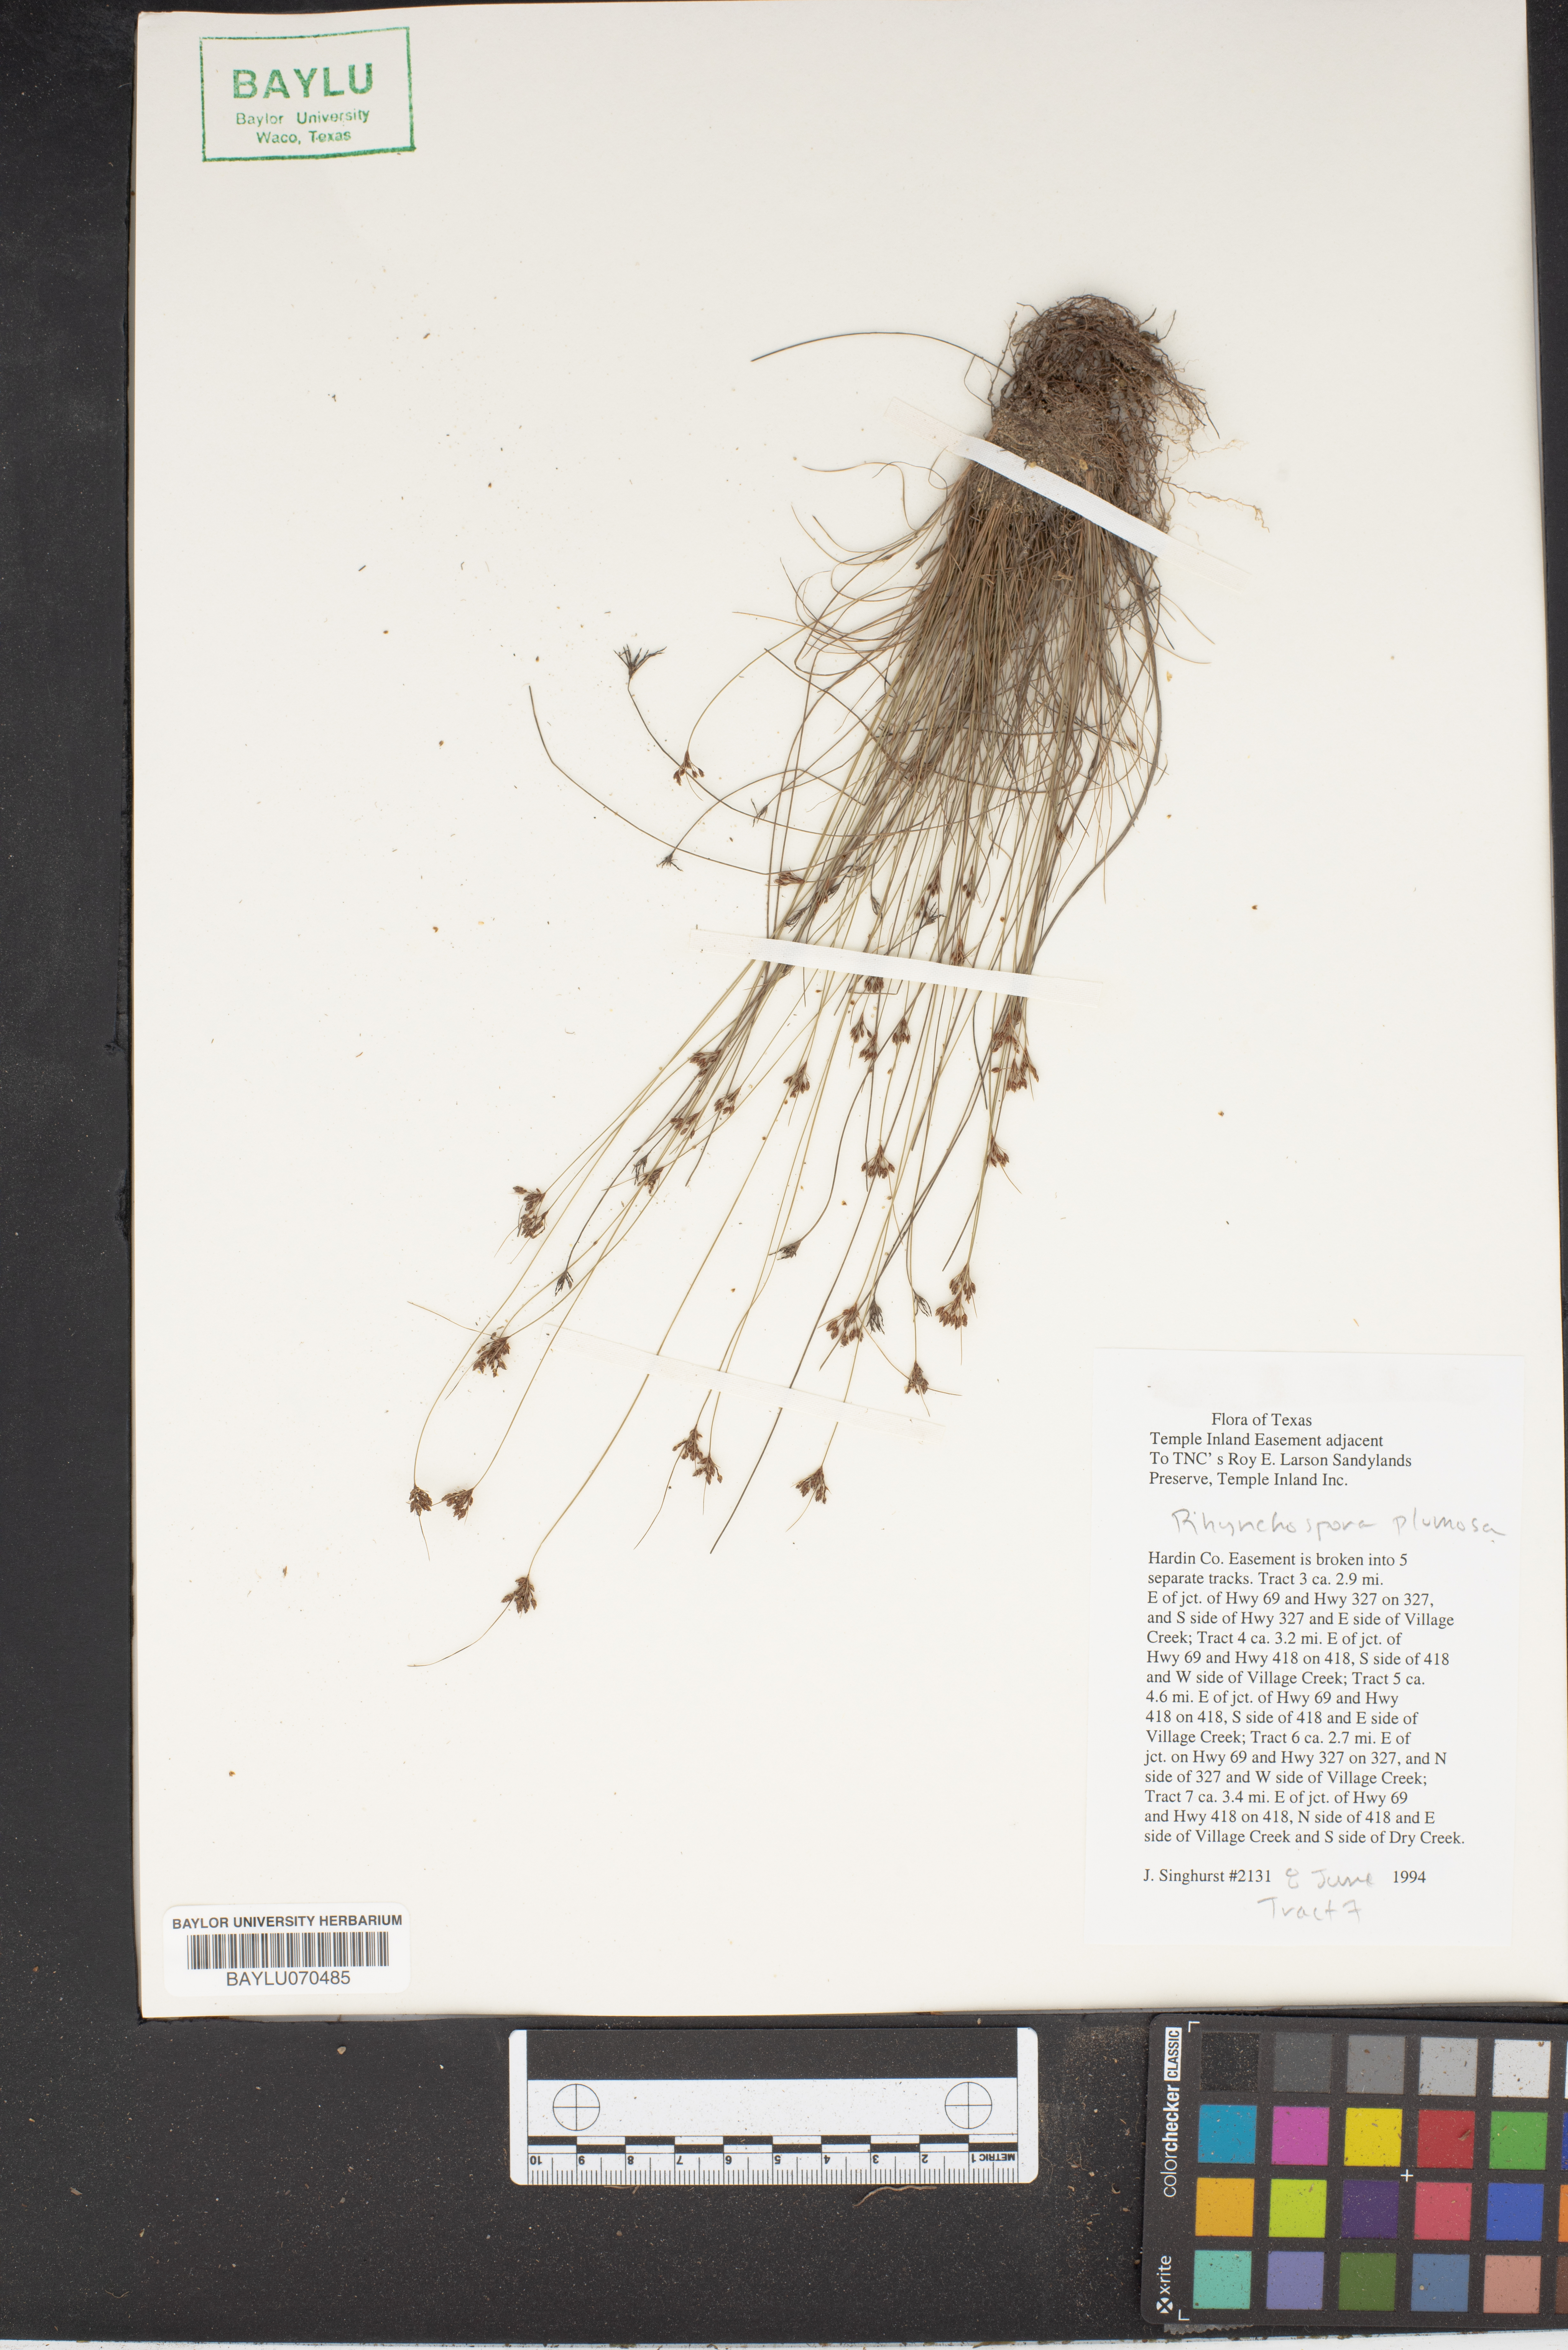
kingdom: Plantae
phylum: Tracheophyta
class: Liliopsida
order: Poales
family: Cyperaceae
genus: Rhynchospora
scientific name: Rhynchospora plumosa
